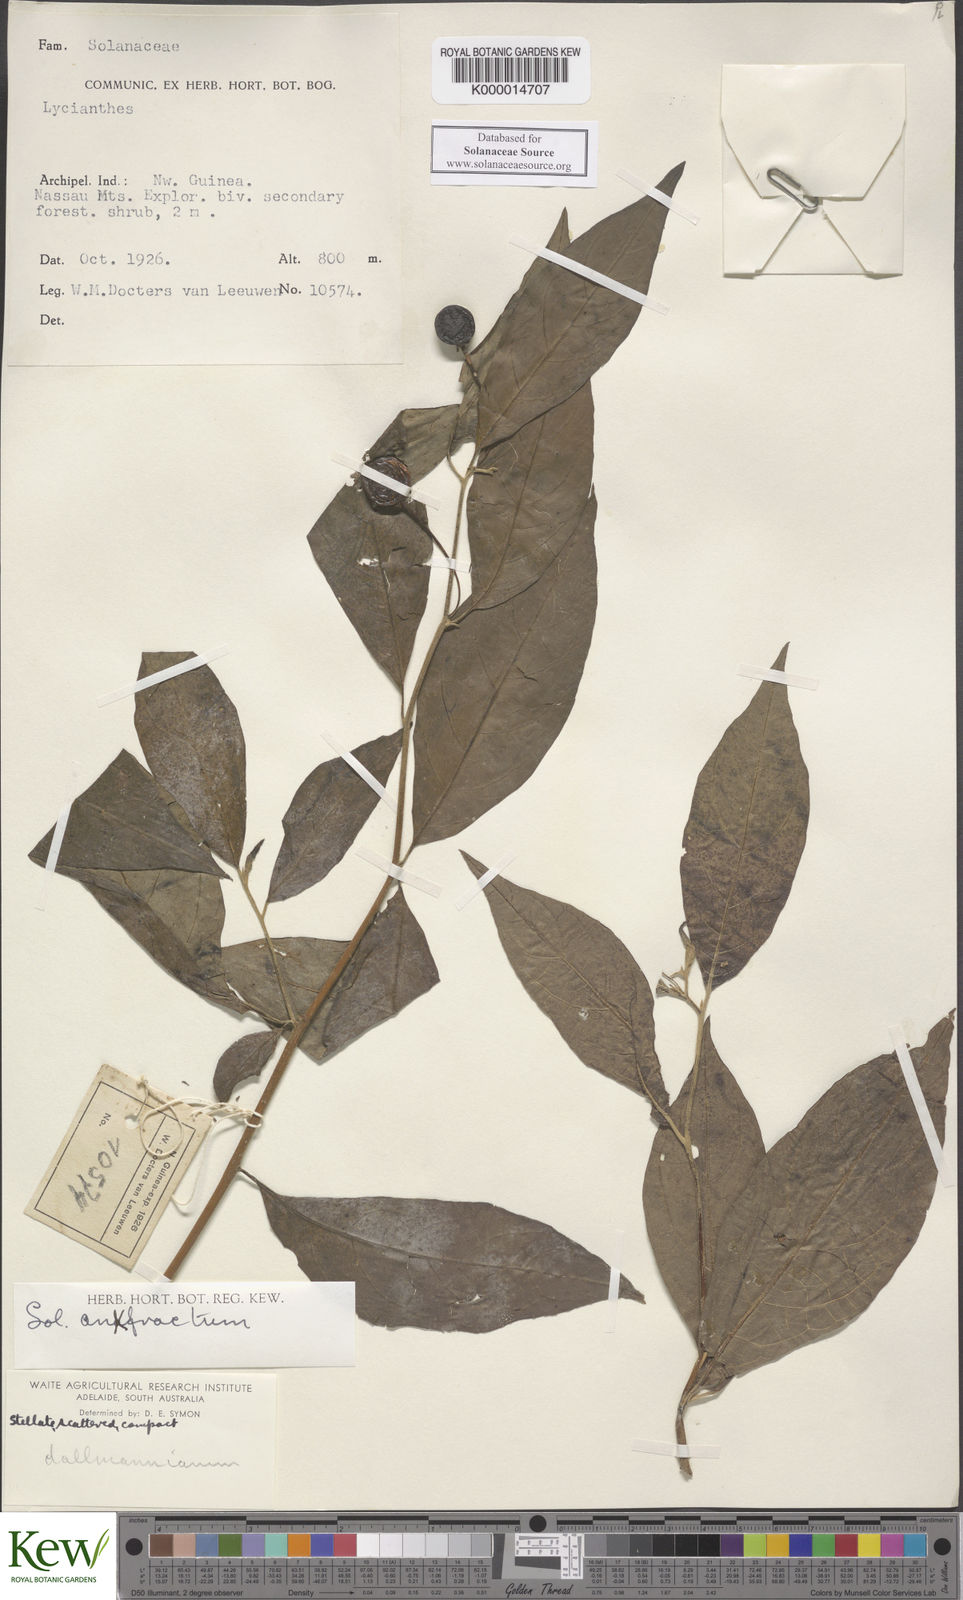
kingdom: Plantae
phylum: Tracheophyta
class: Magnoliopsida
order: Solanales
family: Solanaceae
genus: Solanum
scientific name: Solanum anfractum
